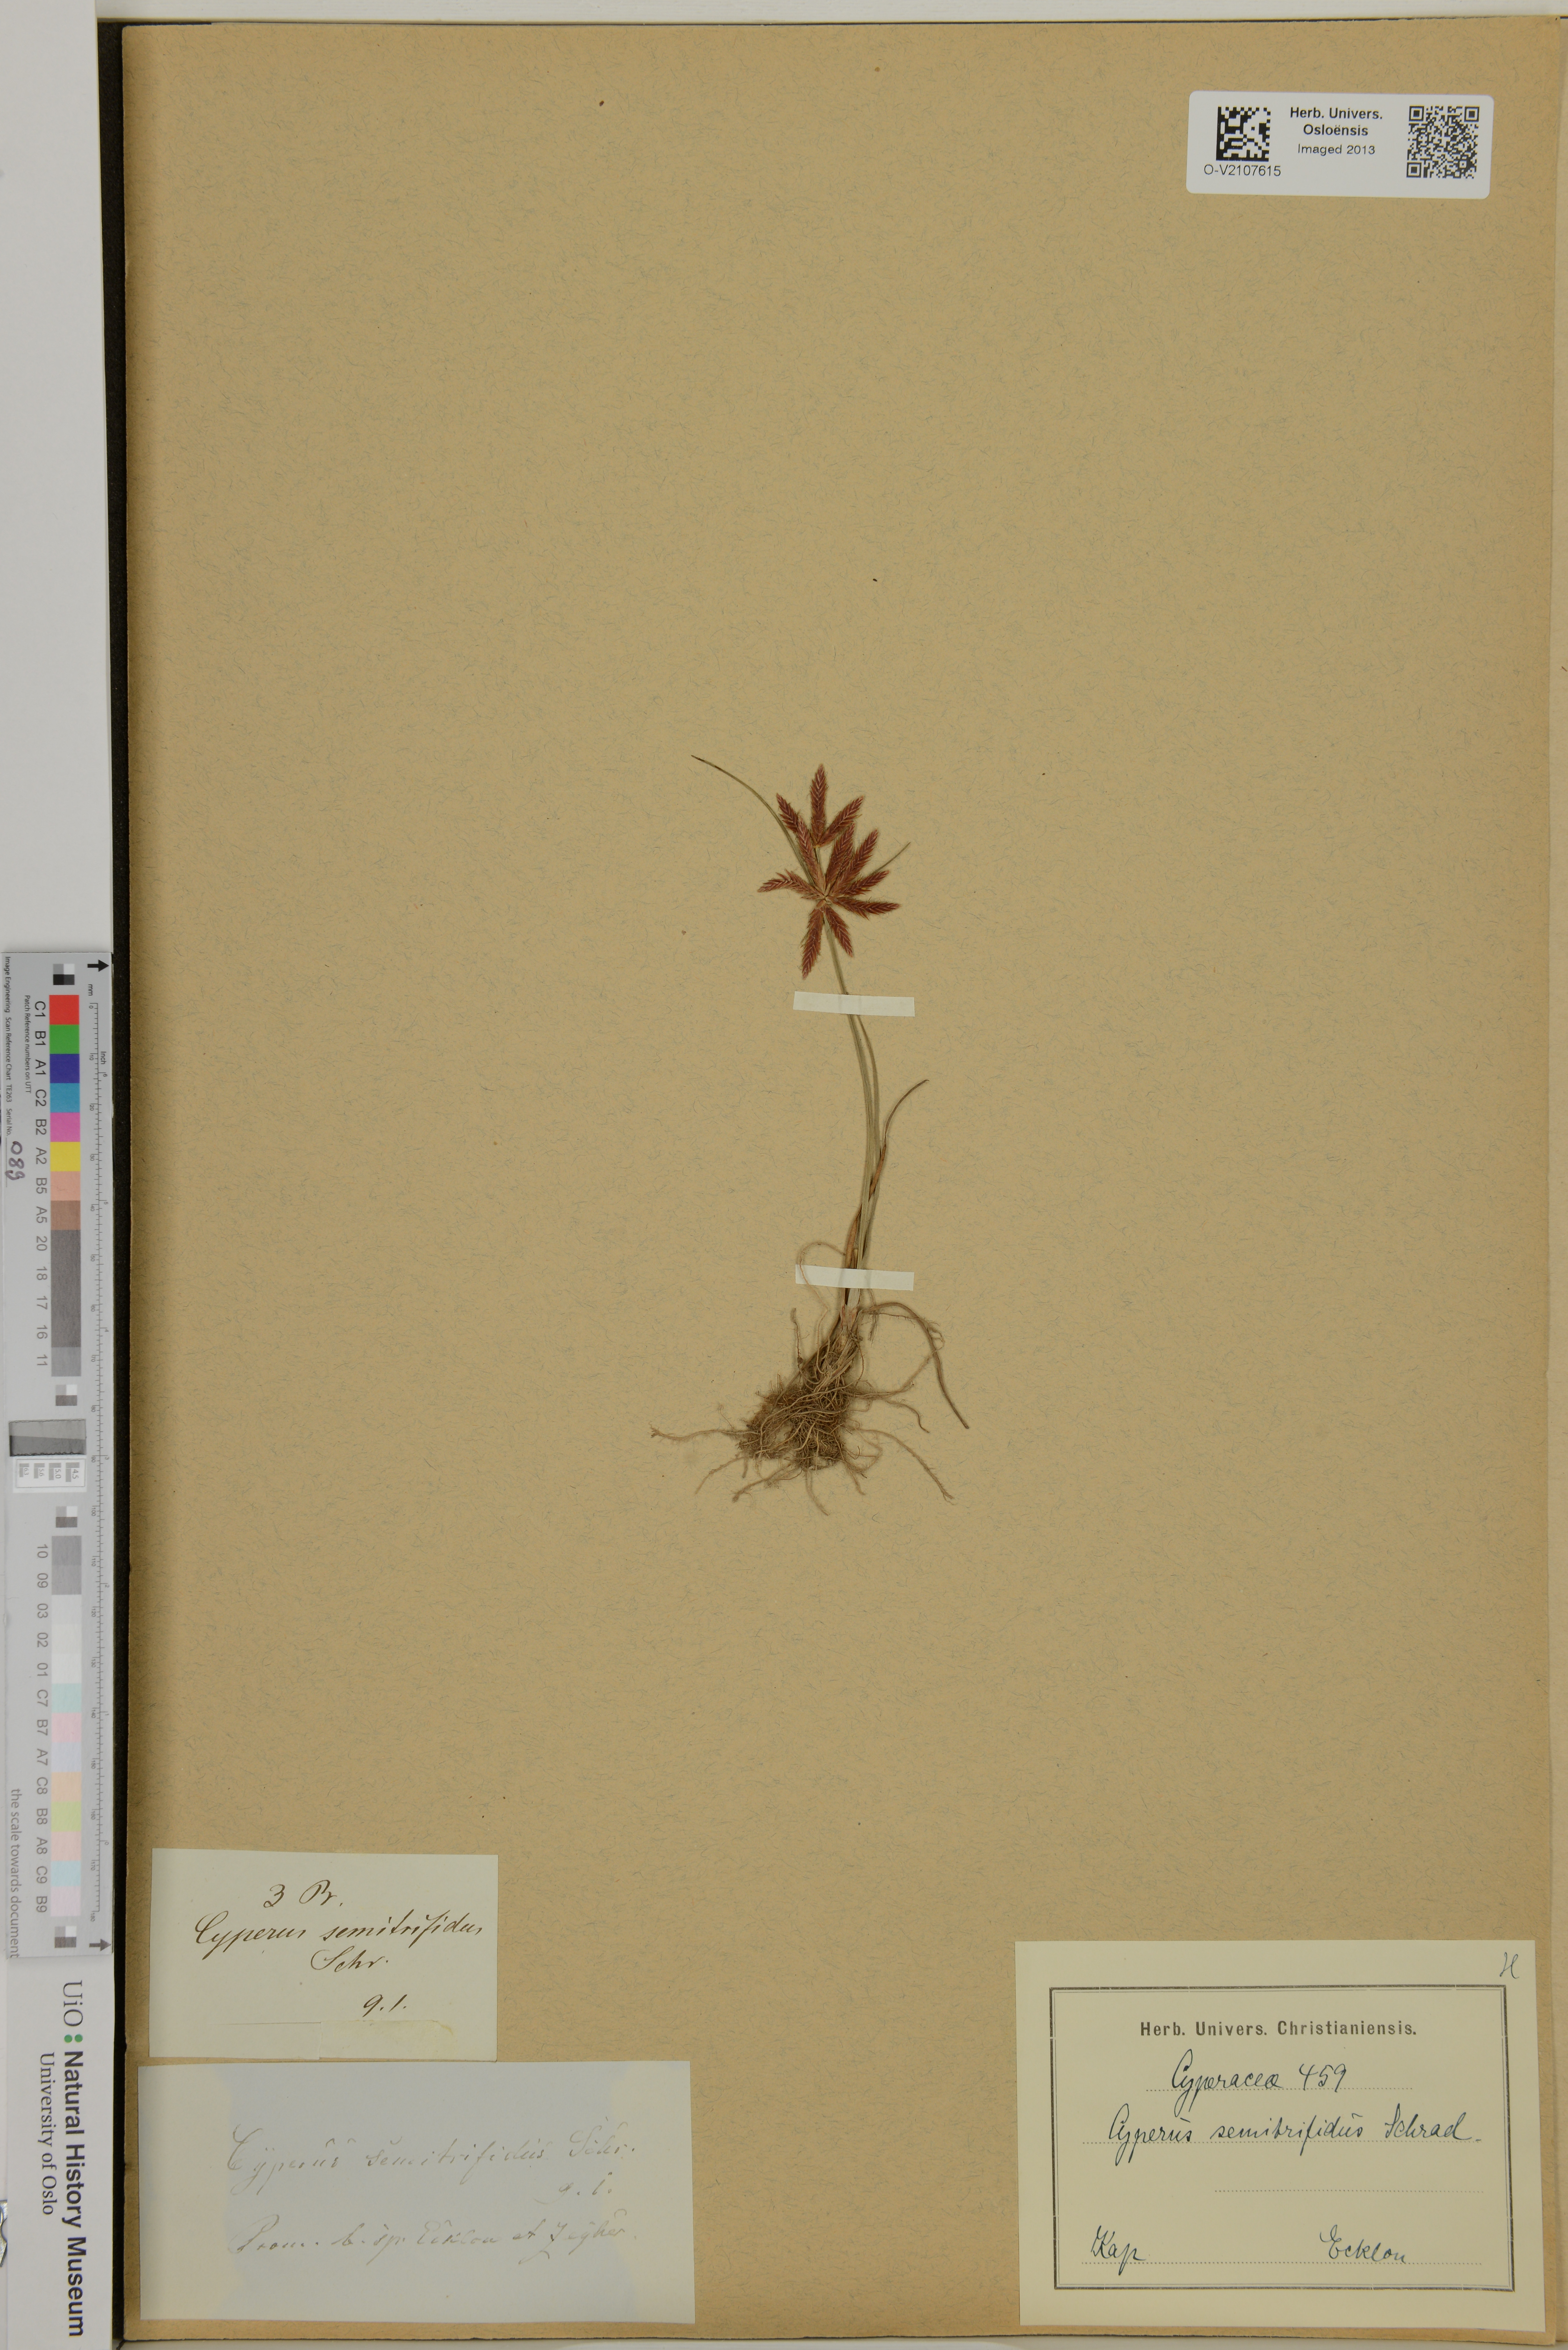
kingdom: Plantae
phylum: Tracheophyta
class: Liliopsida
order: Poales
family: Cyperaceae
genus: Cyperus
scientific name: Cyperus semitrifidus
